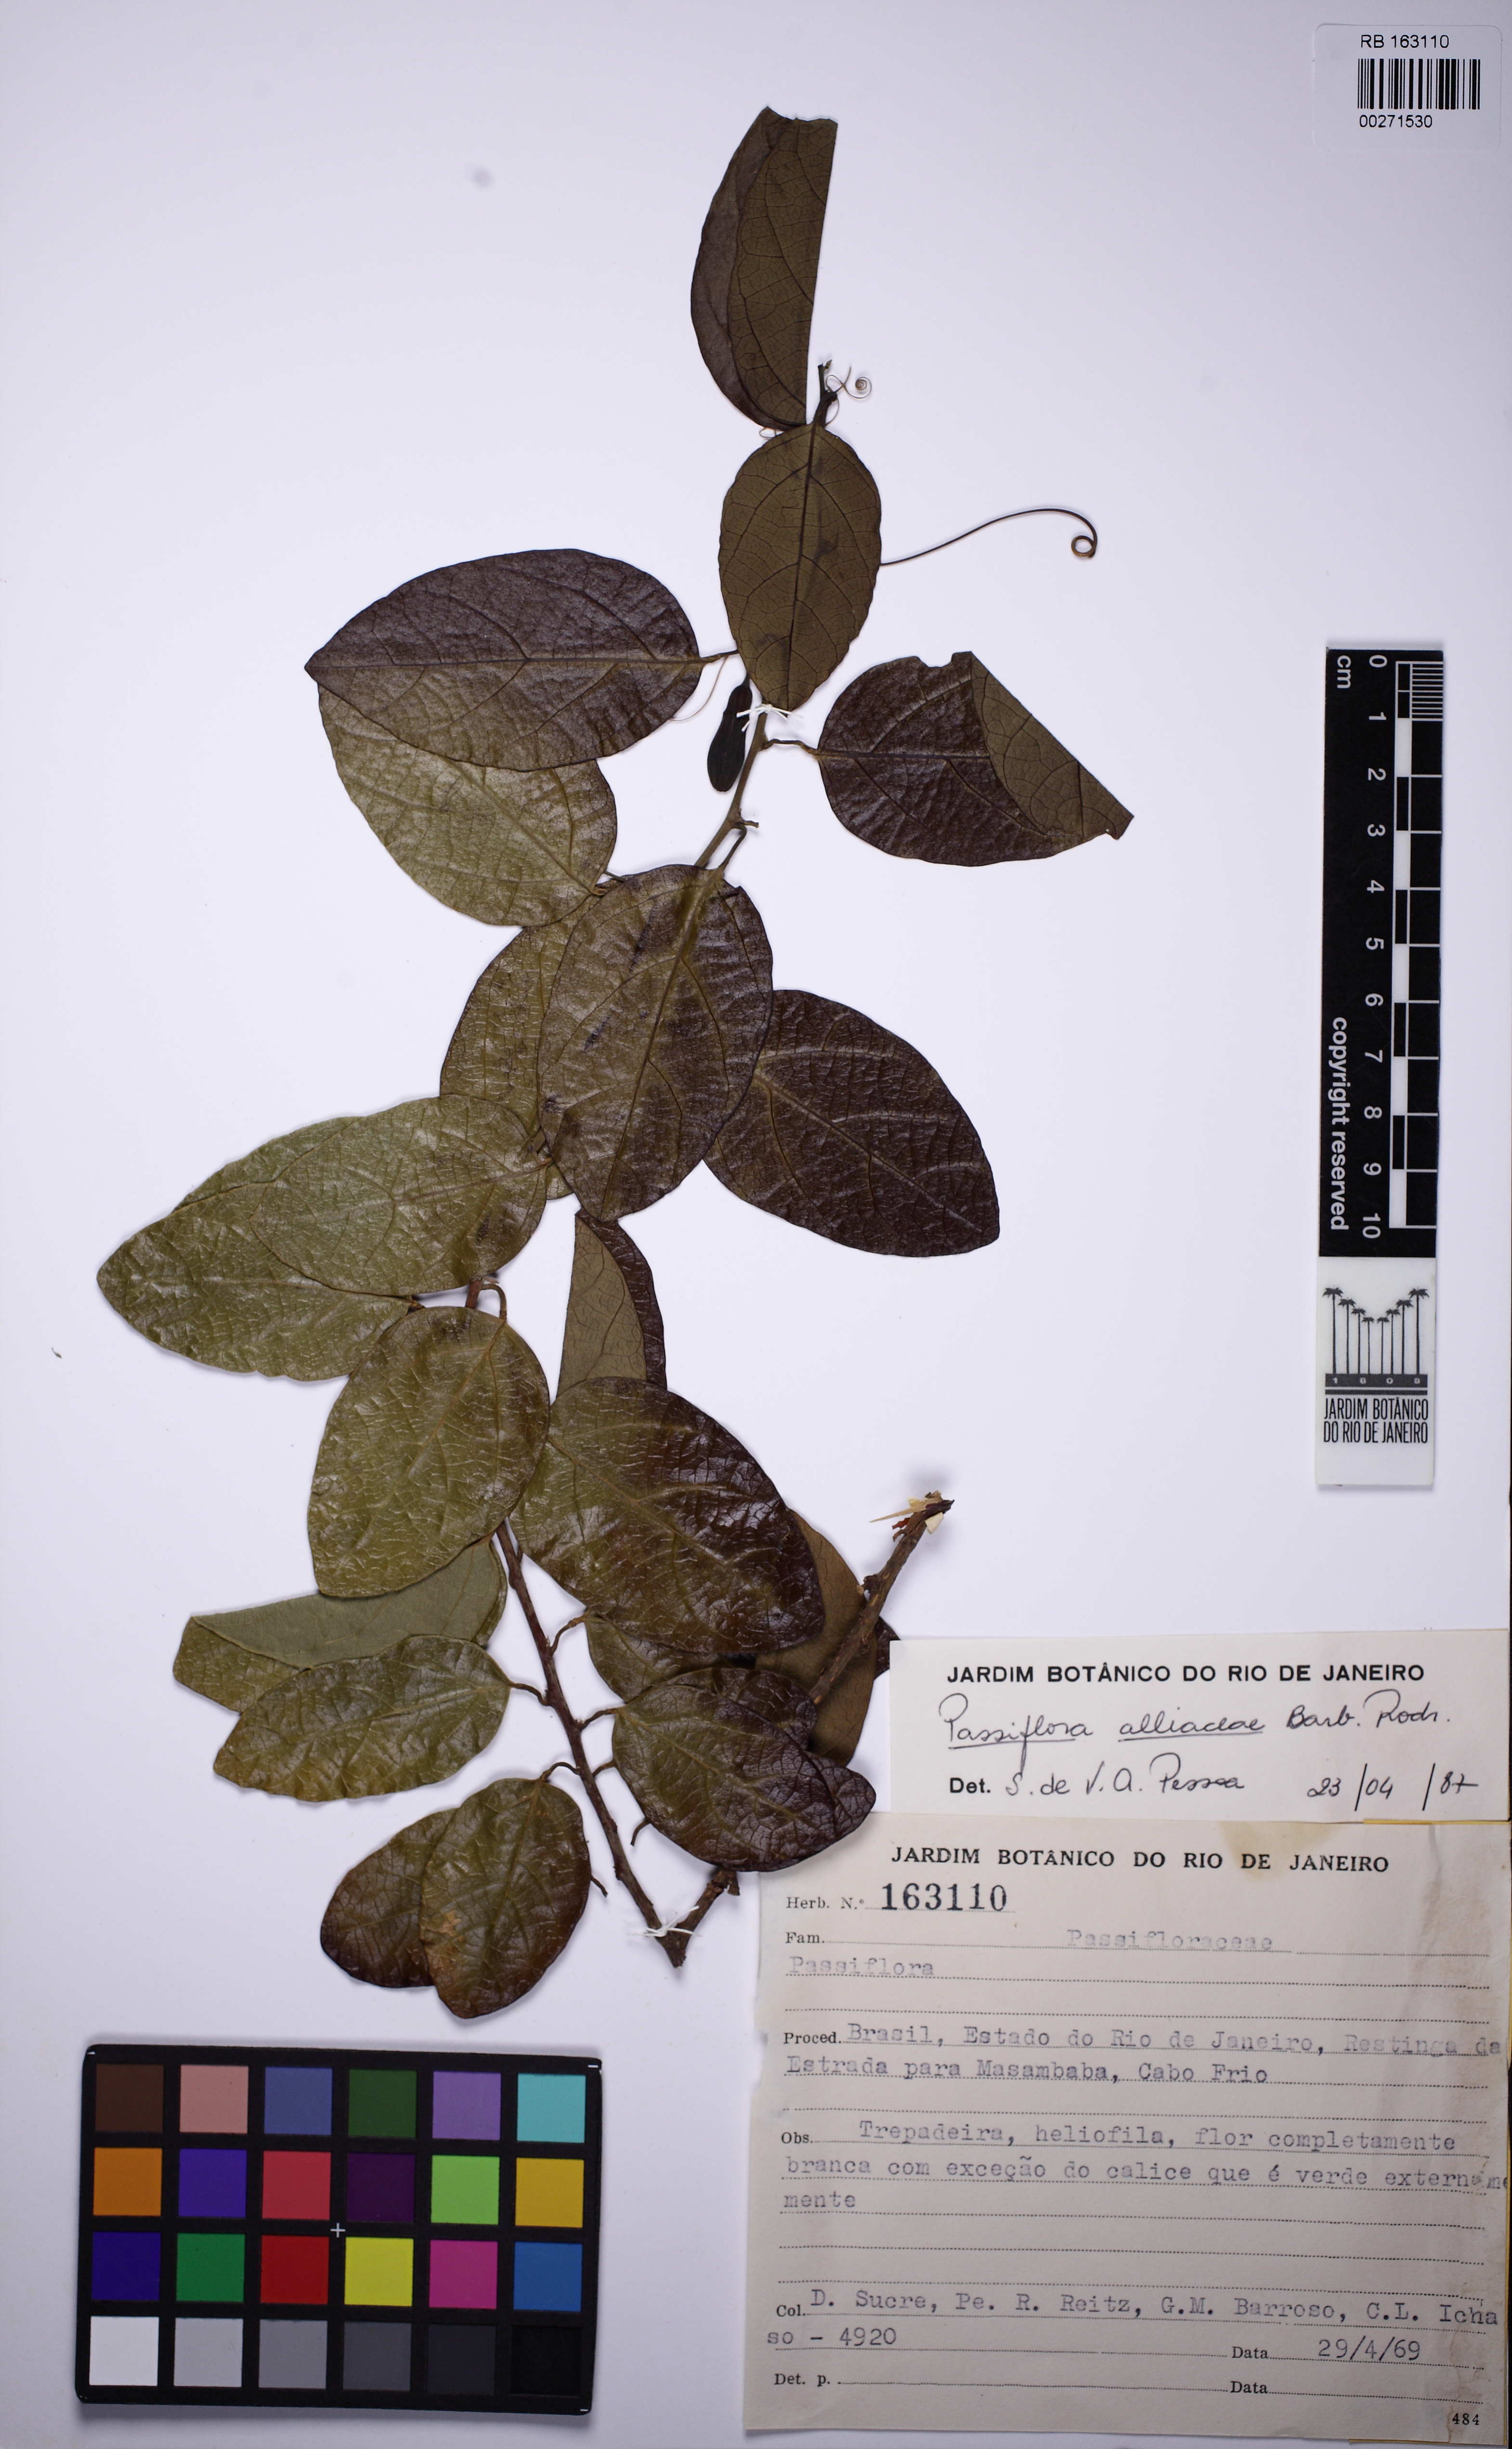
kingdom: Plantae
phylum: Tracheophyta
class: Magnoliopsida
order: Malpighiales
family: Passifloraceae
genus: Passiflora
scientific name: Passiflora pentagona
